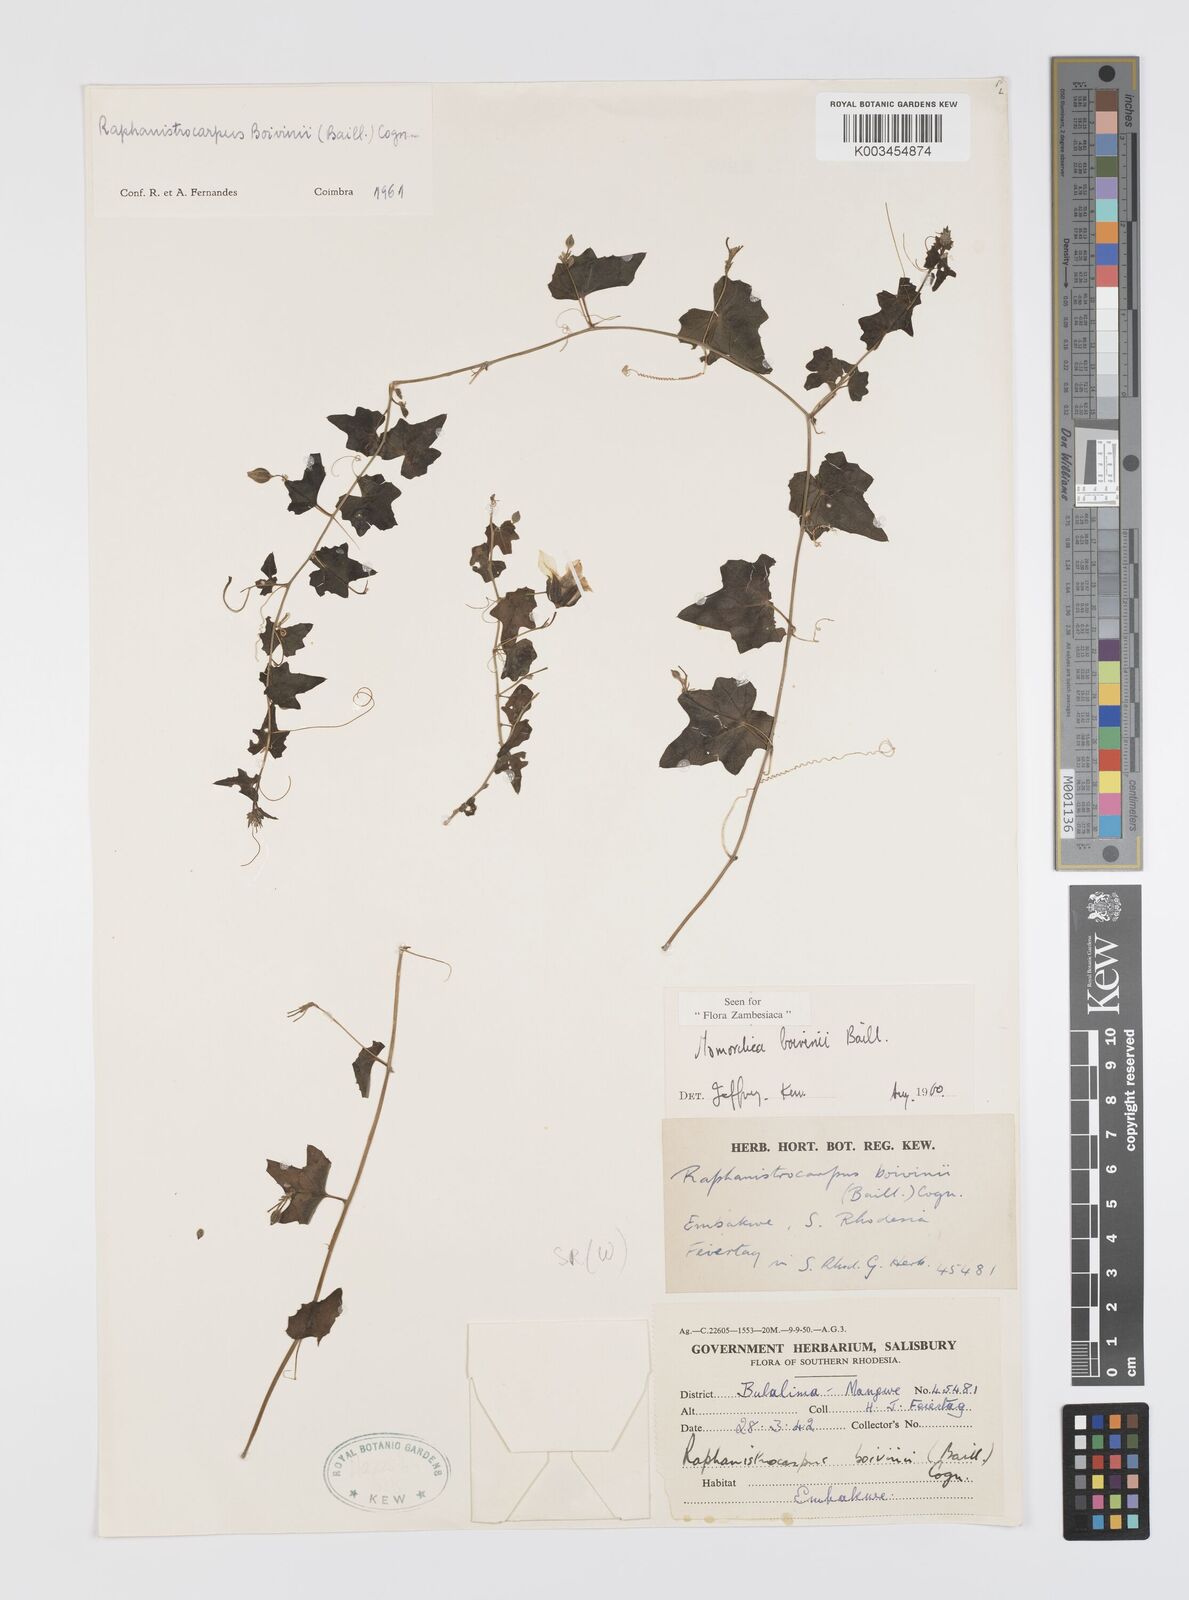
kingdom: Plantae
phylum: Tracheophyta
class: Magnoliopsida
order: Cucurbitales
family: Cucurbitaceae
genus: Momordica
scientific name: Momordica boivinii
